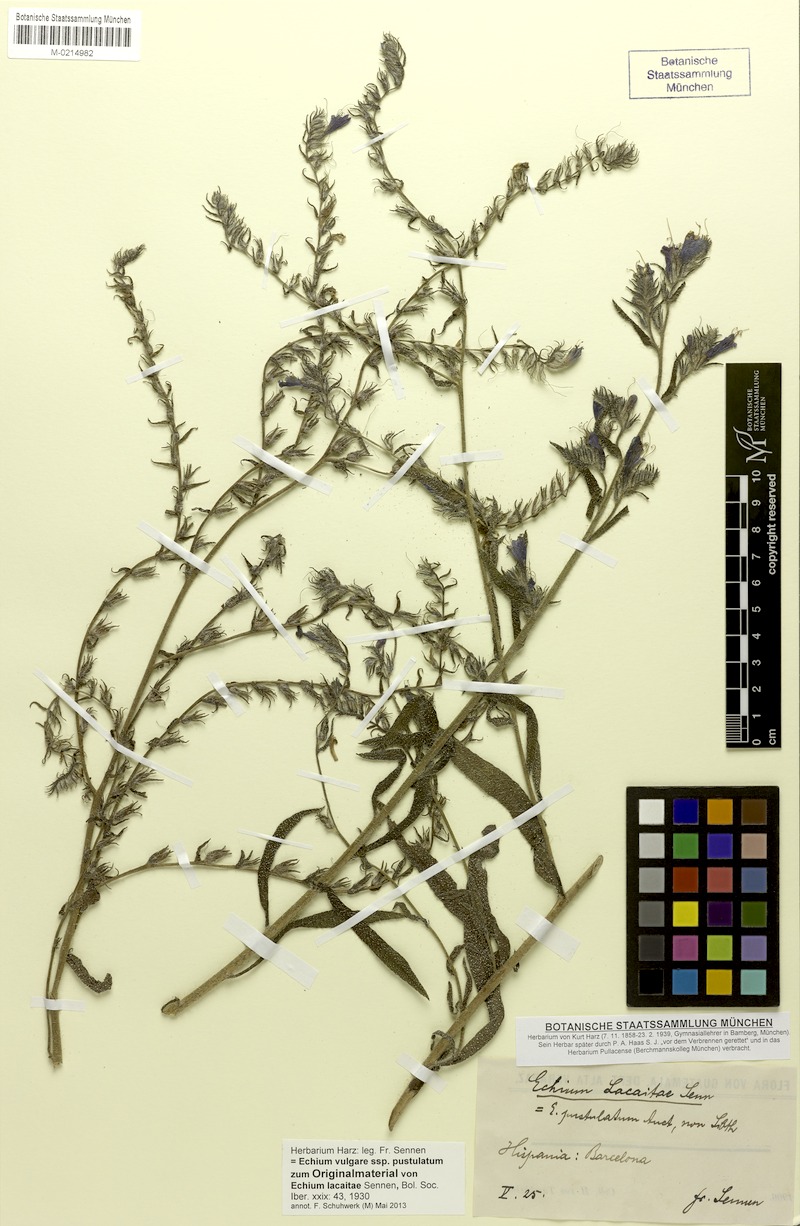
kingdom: Plantae
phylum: Tracheophyta
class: Magnoliopsida
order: Boraginales
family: Boraginaceae
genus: Echium
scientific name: Echium vulgare
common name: Common viper's bugloss
